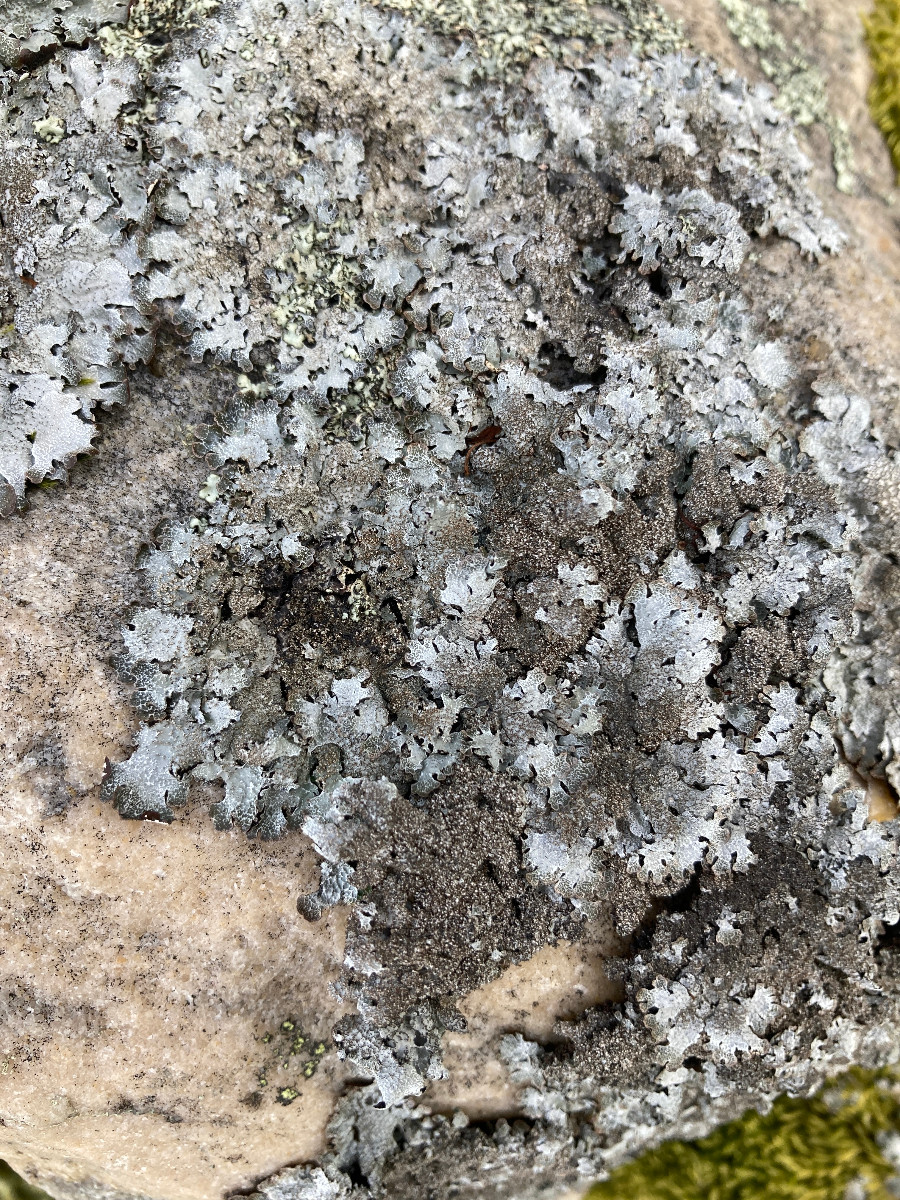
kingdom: Fungi
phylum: Ascomycota
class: Lecanoromycetes
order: Lecanorales
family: Parmeliaceae
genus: Parmelia
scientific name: Parmelia saxatilis
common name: farve-skållav
